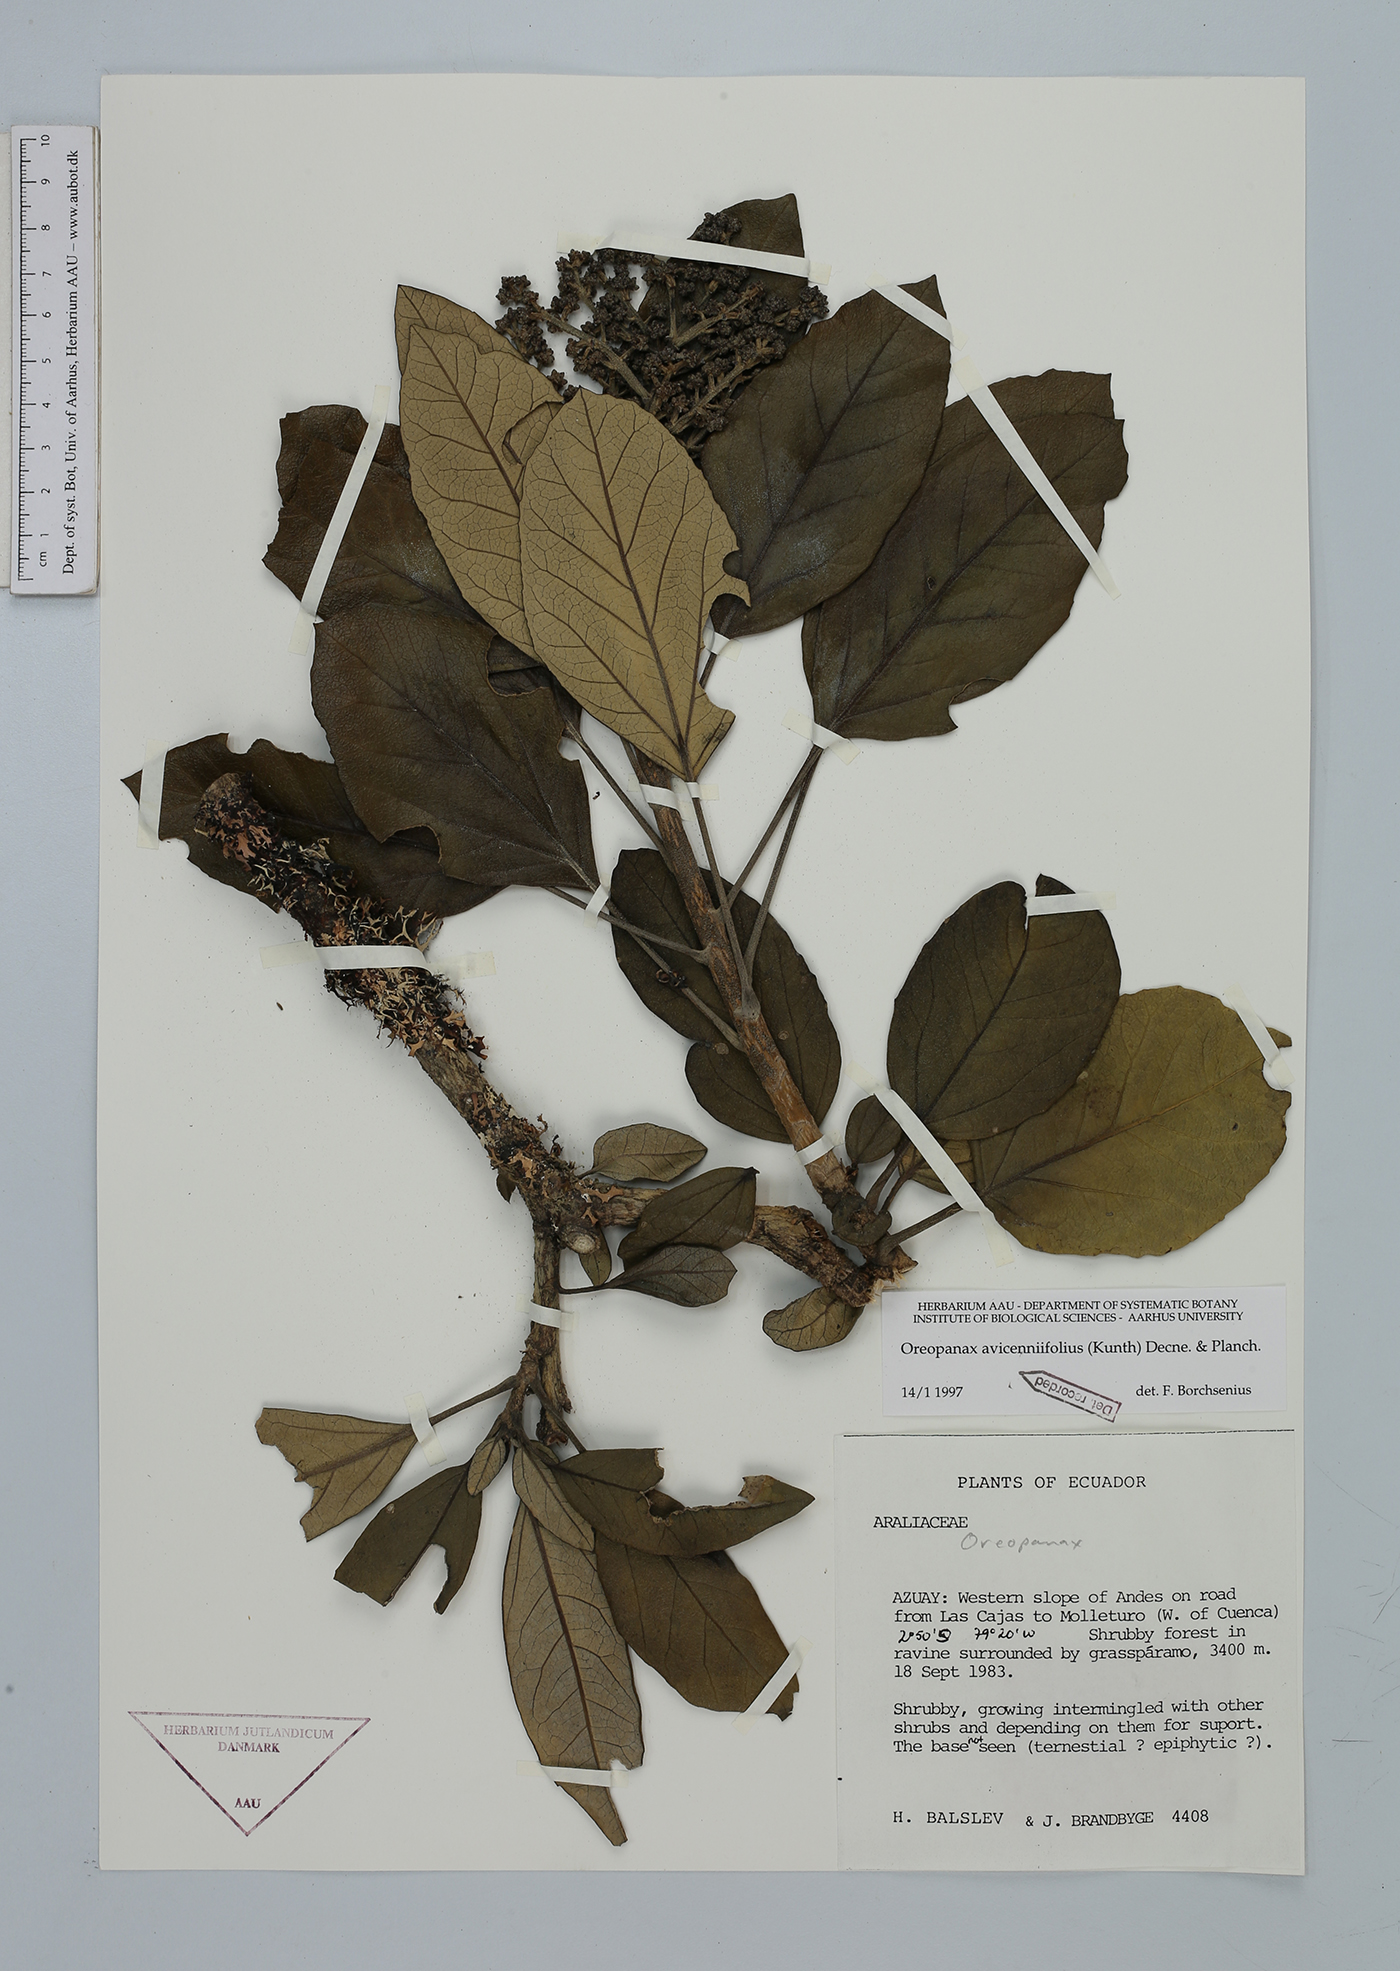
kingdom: Plantae
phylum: Tracheophyta
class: Magnoliopsida
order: Apiales
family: Araliaceae
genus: Oreopanax
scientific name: Oreopanax avicenniifolius
